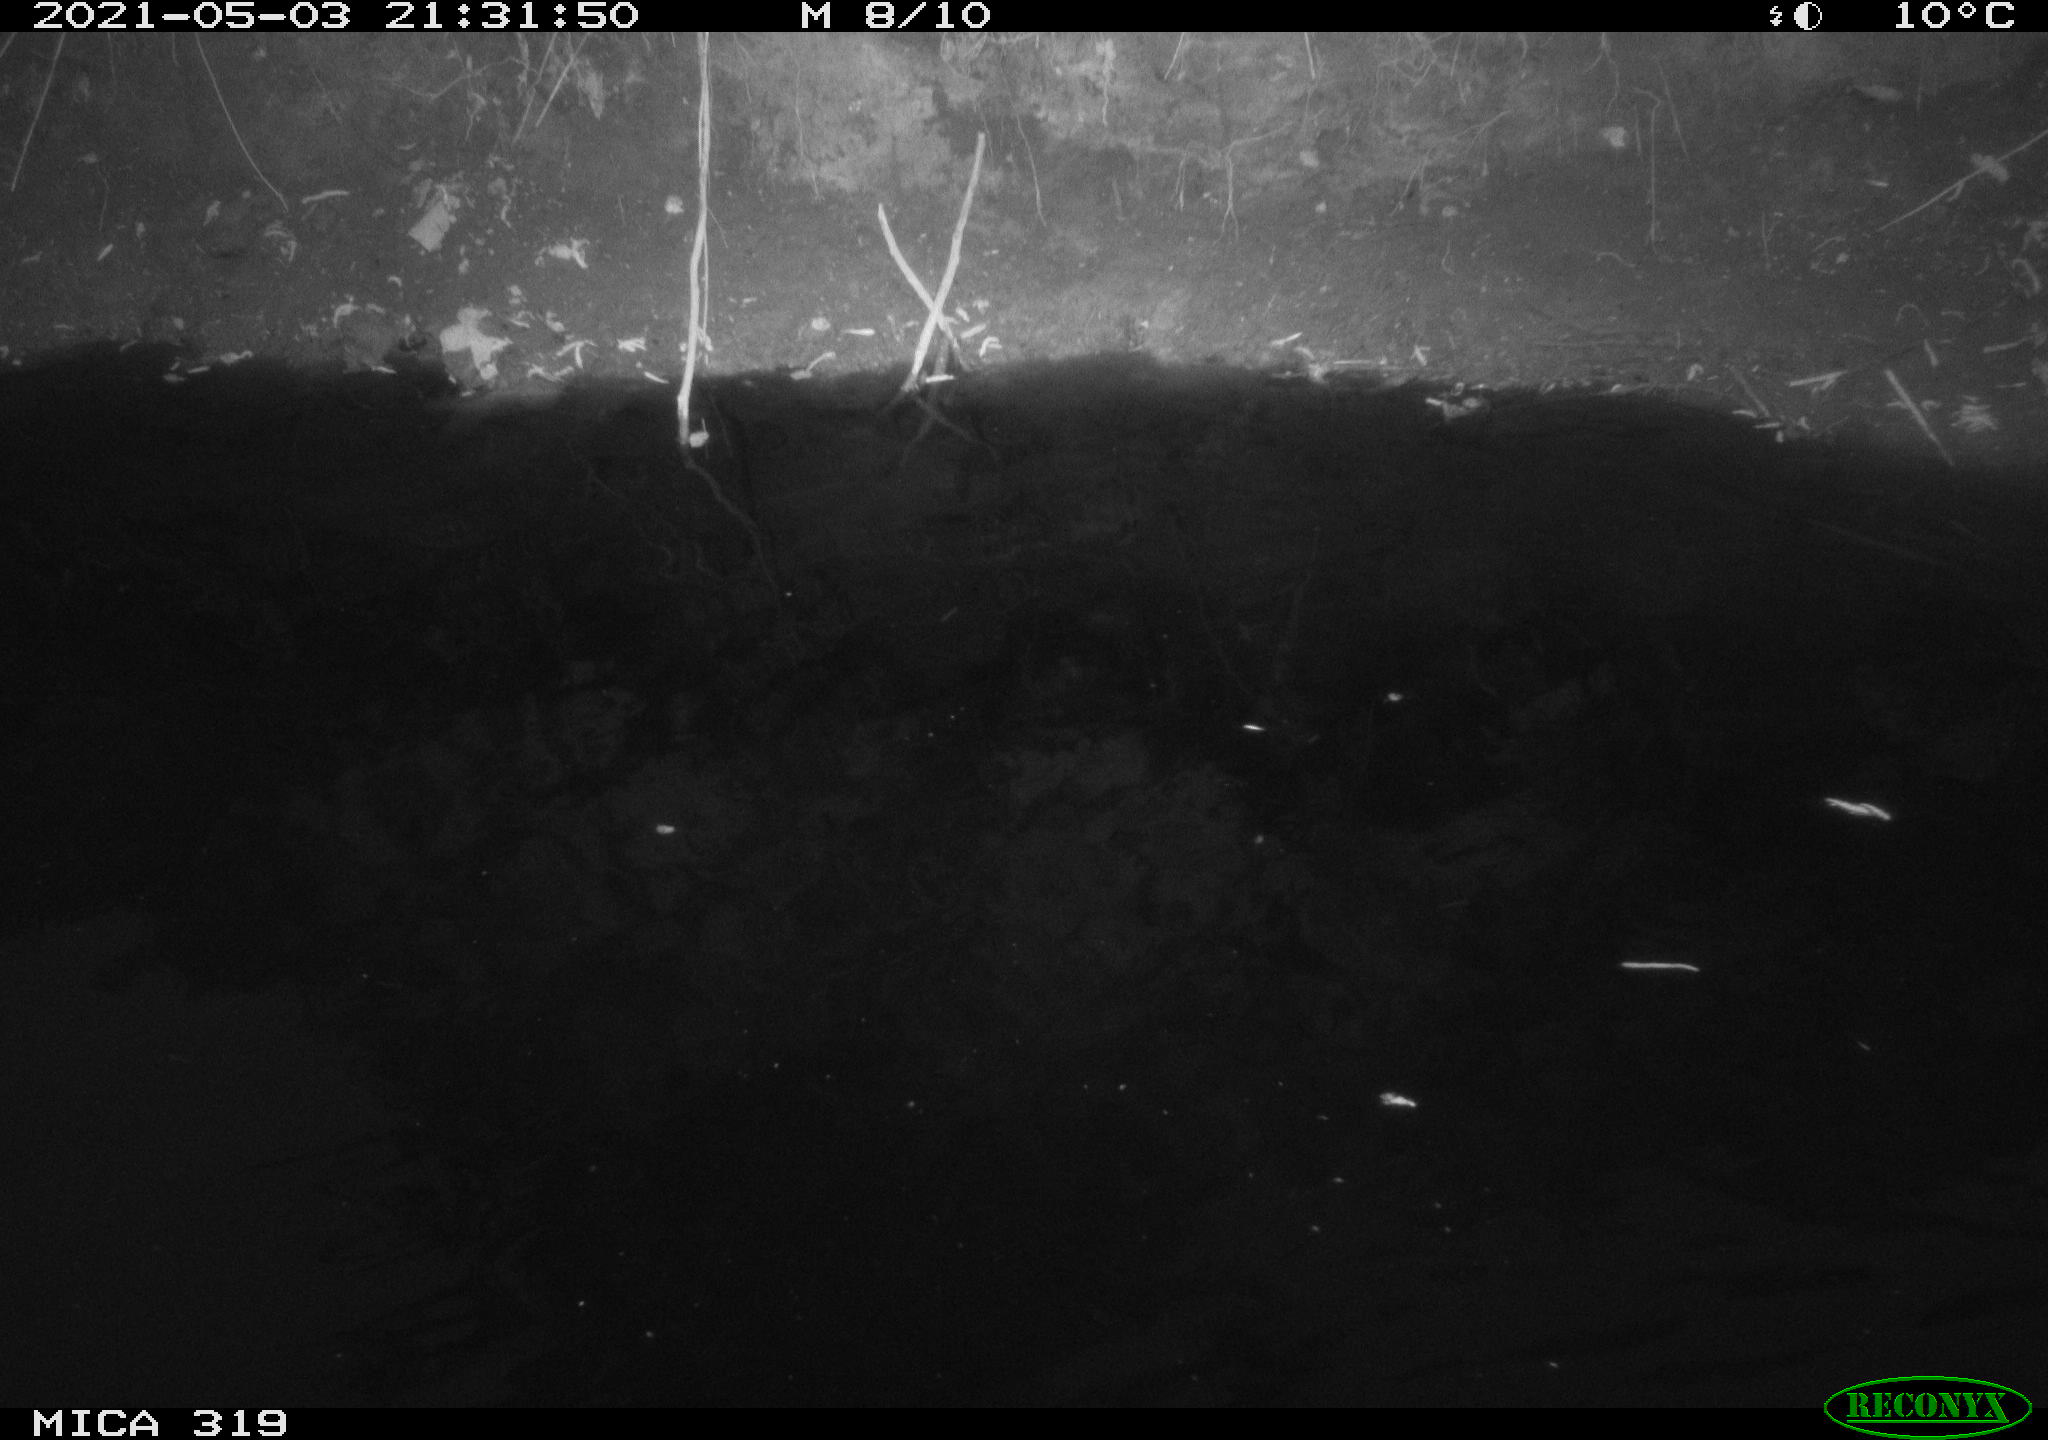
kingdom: Animalia
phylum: Chordata
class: Aves
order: Anseriformes
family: Anatidae
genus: Anas
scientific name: Anas platyrhynchos
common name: Mallard
